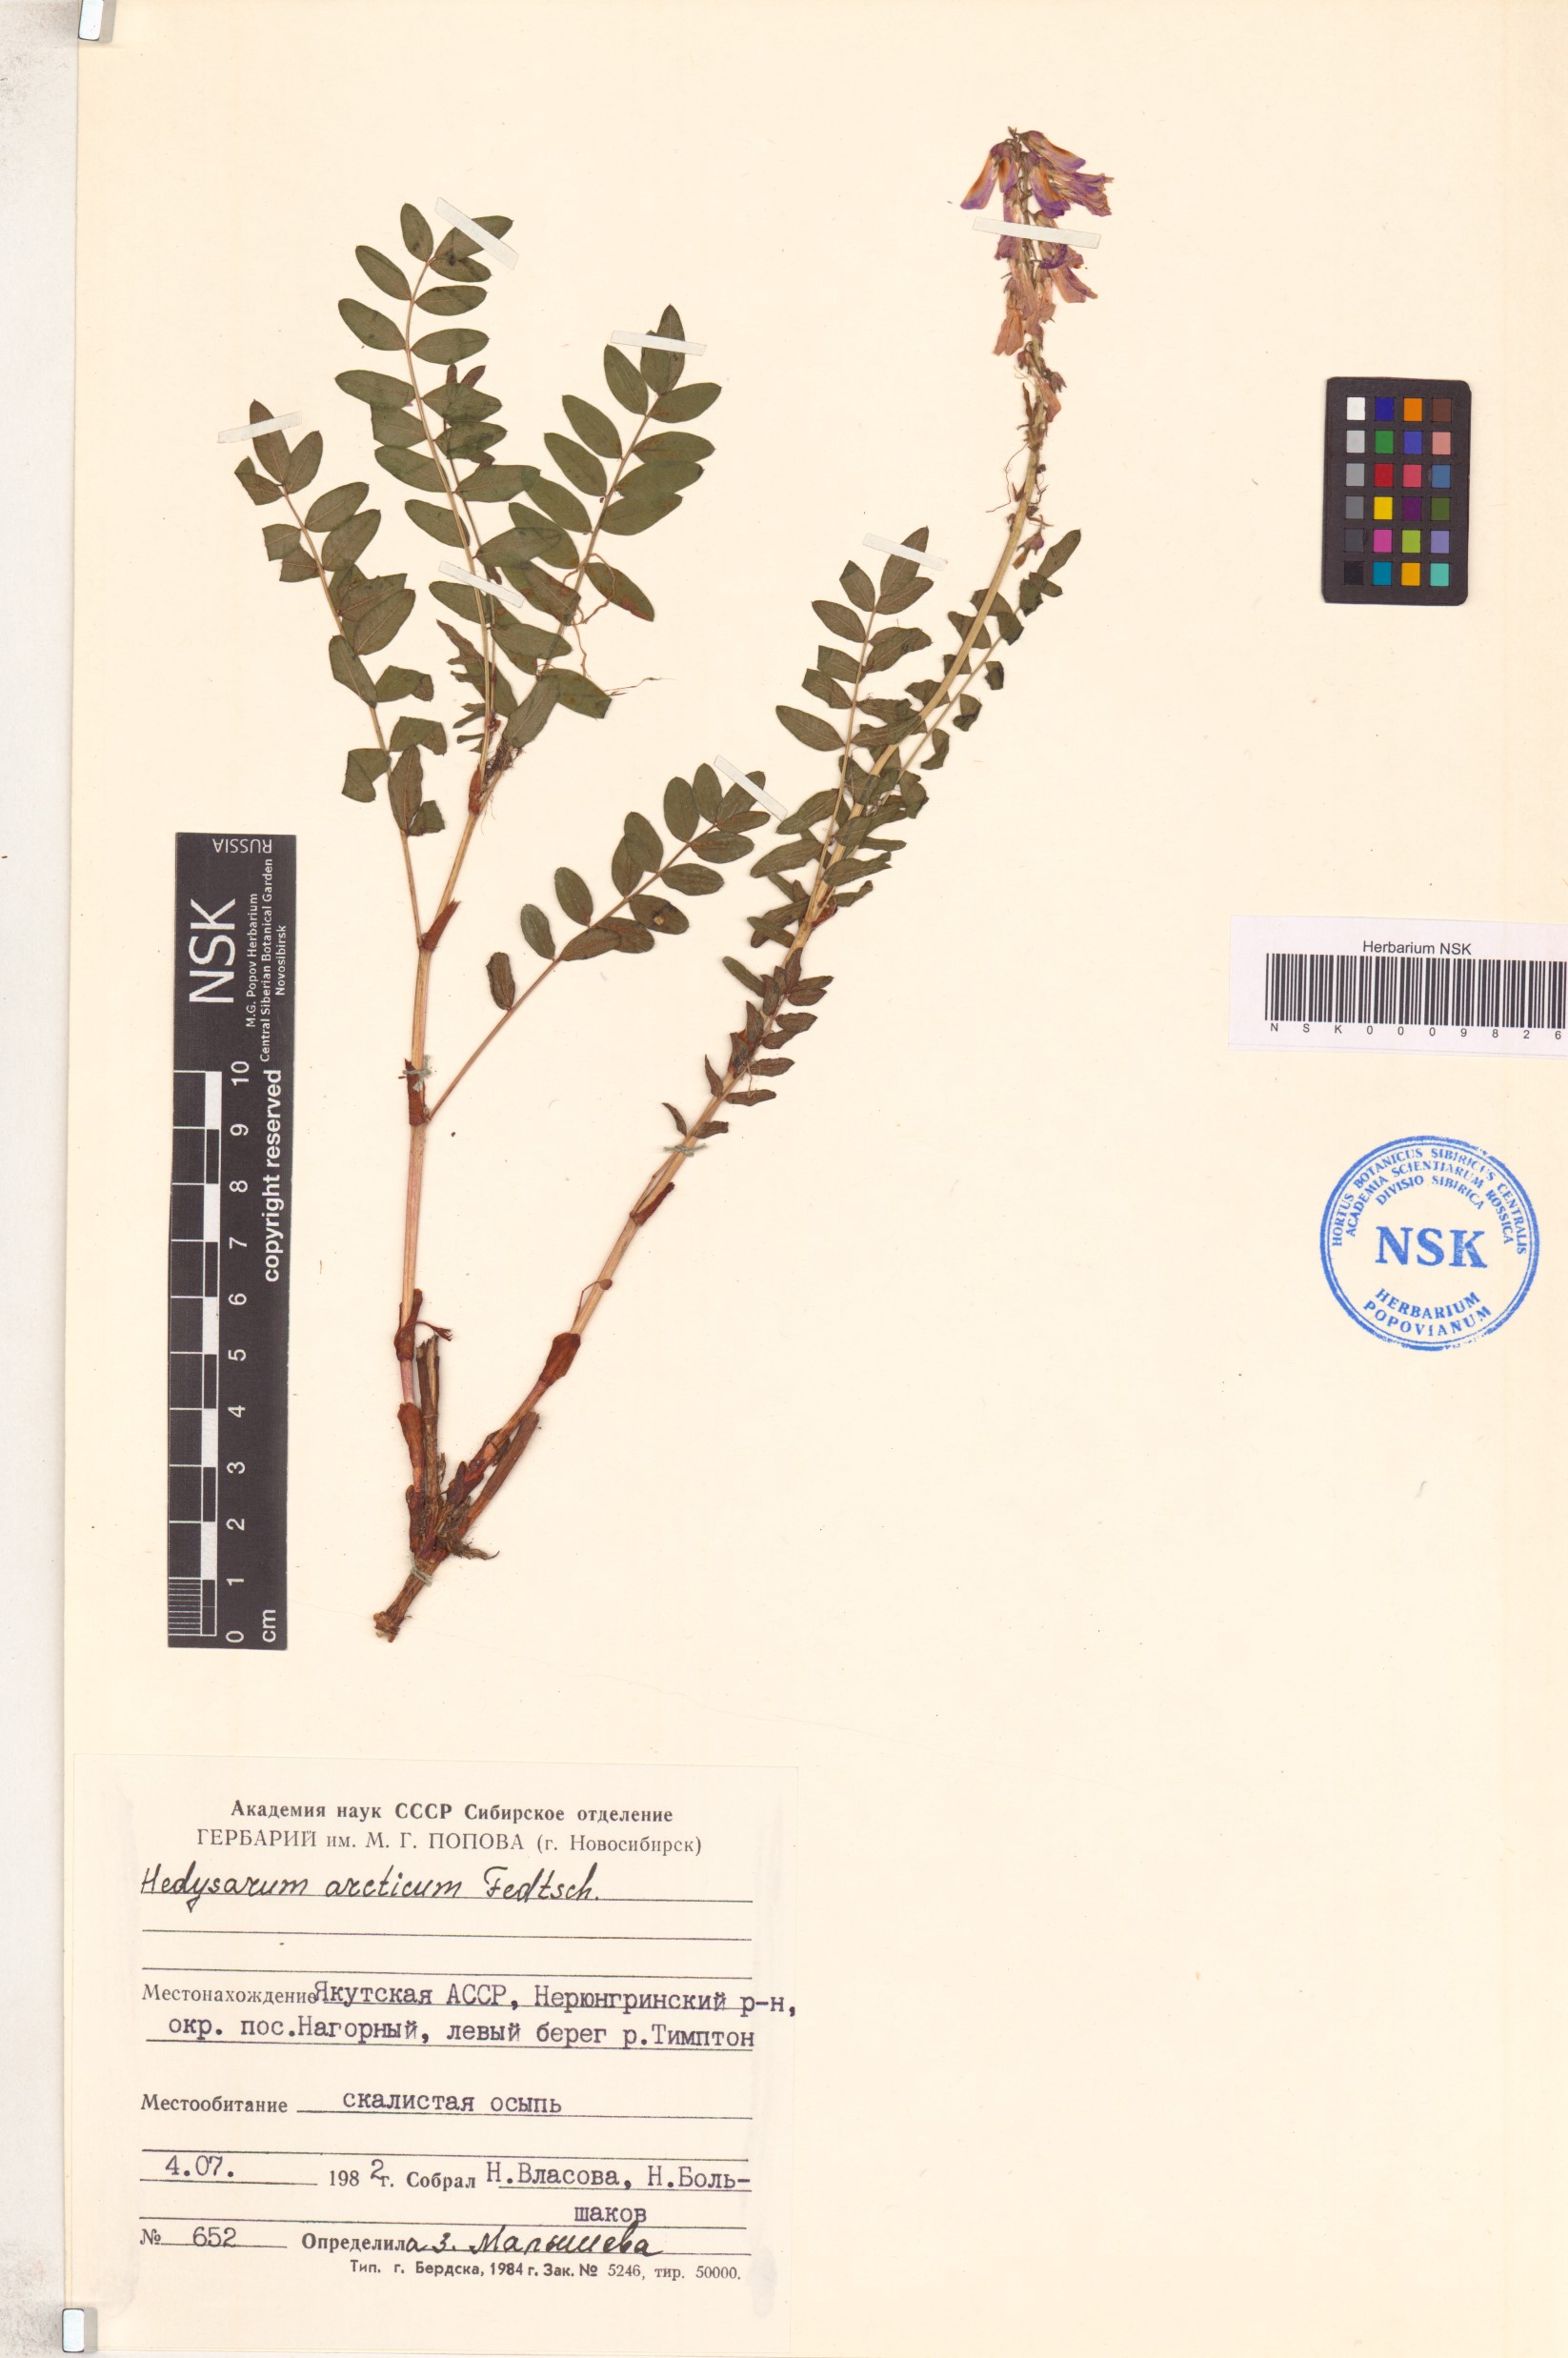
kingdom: Plantae
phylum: Tracheophyta
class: Magnoliopsida
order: Fabales
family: Fabaceae
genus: Hedysarum
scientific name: Hedysarum hedysaroides
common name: Alpine french-honeysuckle
